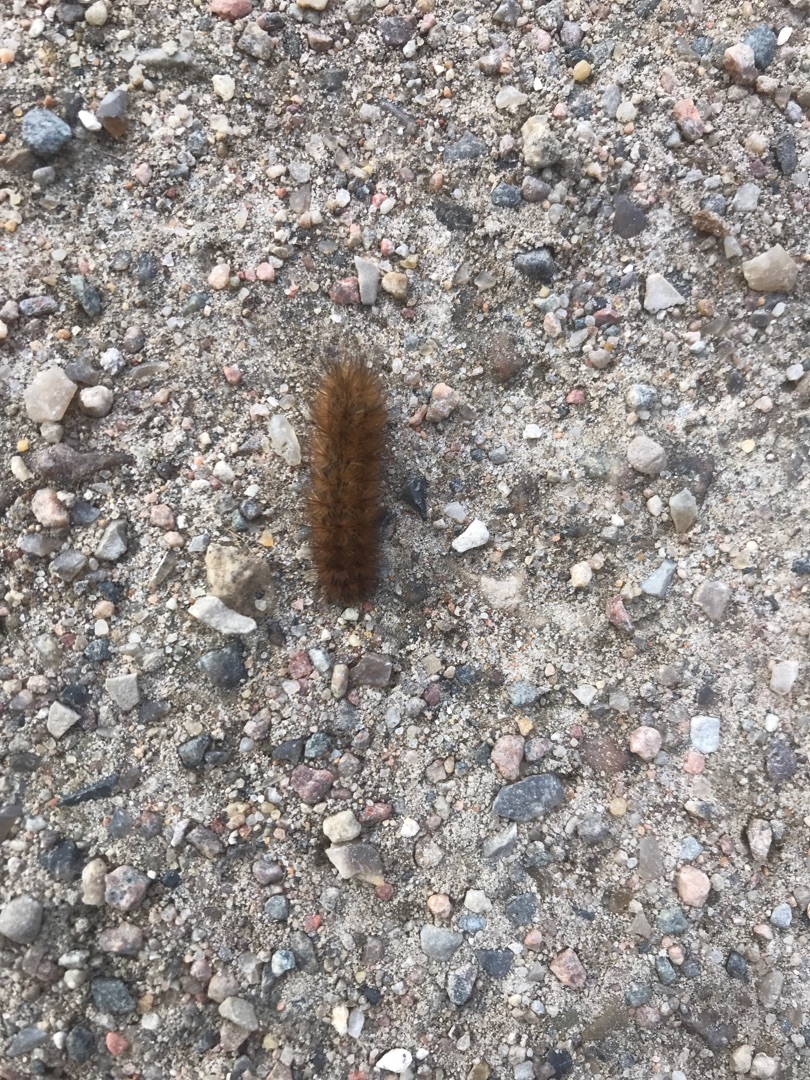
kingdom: Animalia
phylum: Arthropoda
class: Insecta
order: Lepidoptera
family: Erebidae
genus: Phragmatobia
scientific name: Phragmatobia fuliginosa
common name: Kanelbjørn
